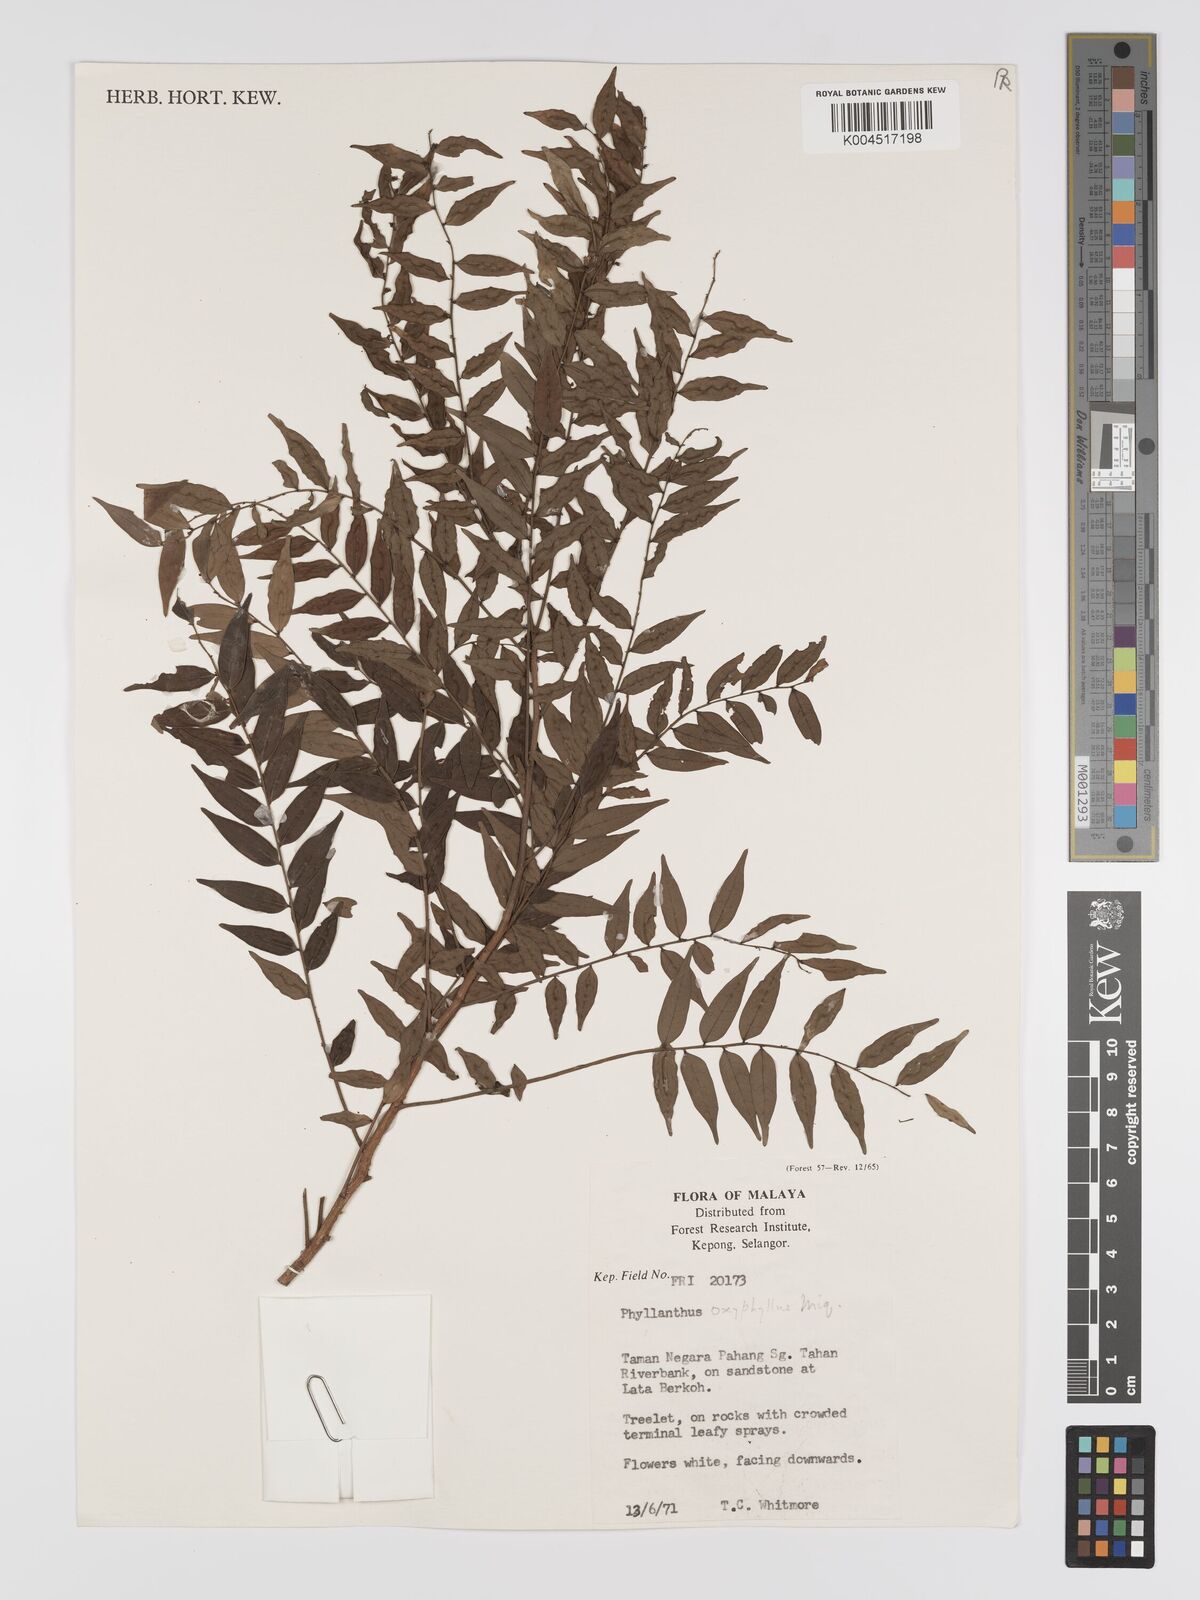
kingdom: Plantae
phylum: Tracheophyta
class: Magnoliopsida
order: Malpighiales
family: Phyllanthaceae
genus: Phyllanthus
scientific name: Phyllanthus
